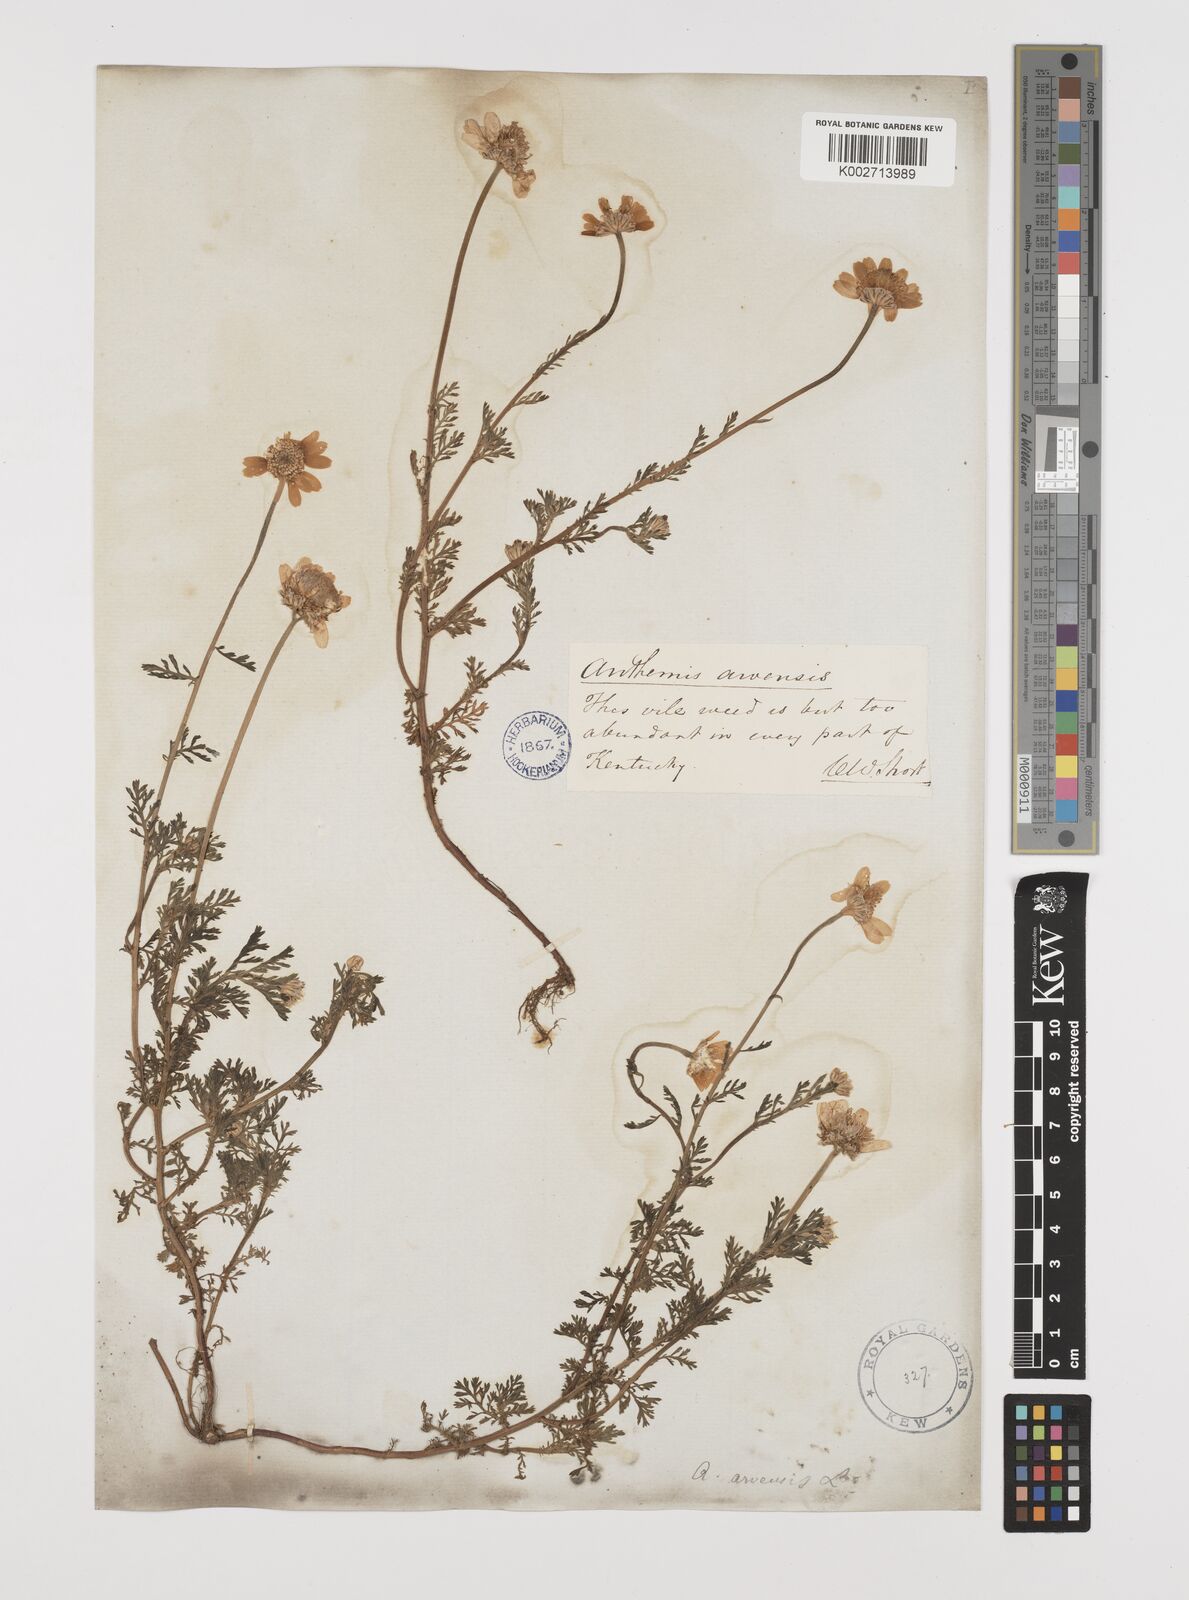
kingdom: Plantae
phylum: Tracheophyta
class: Magnoliopsida
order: Asterales
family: Asteraceae
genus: Anthemis
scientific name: Anthemis arvensis
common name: Corn chamomile
